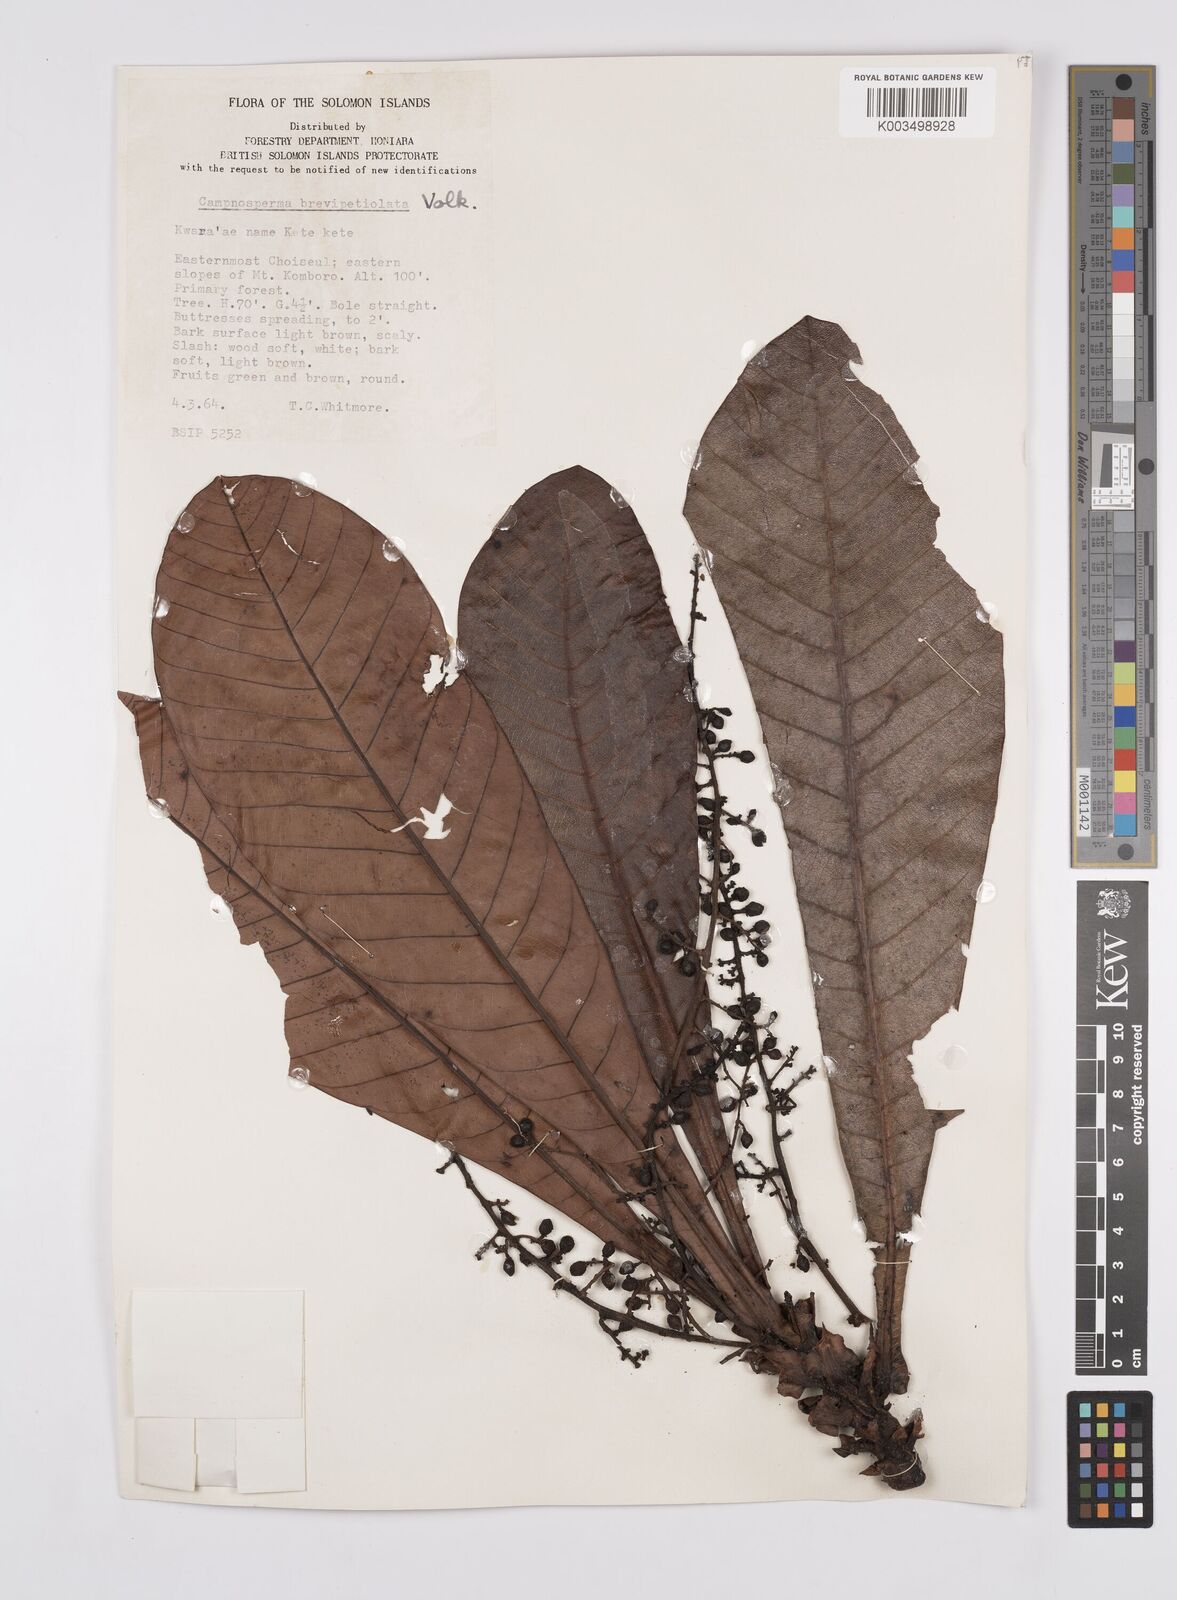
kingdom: Plantae
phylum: Tracheophyta
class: Magnoliopsida
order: Sapindales
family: Anacardiaceae
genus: Campnosperma
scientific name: Campnosperma brevipetiolatum
